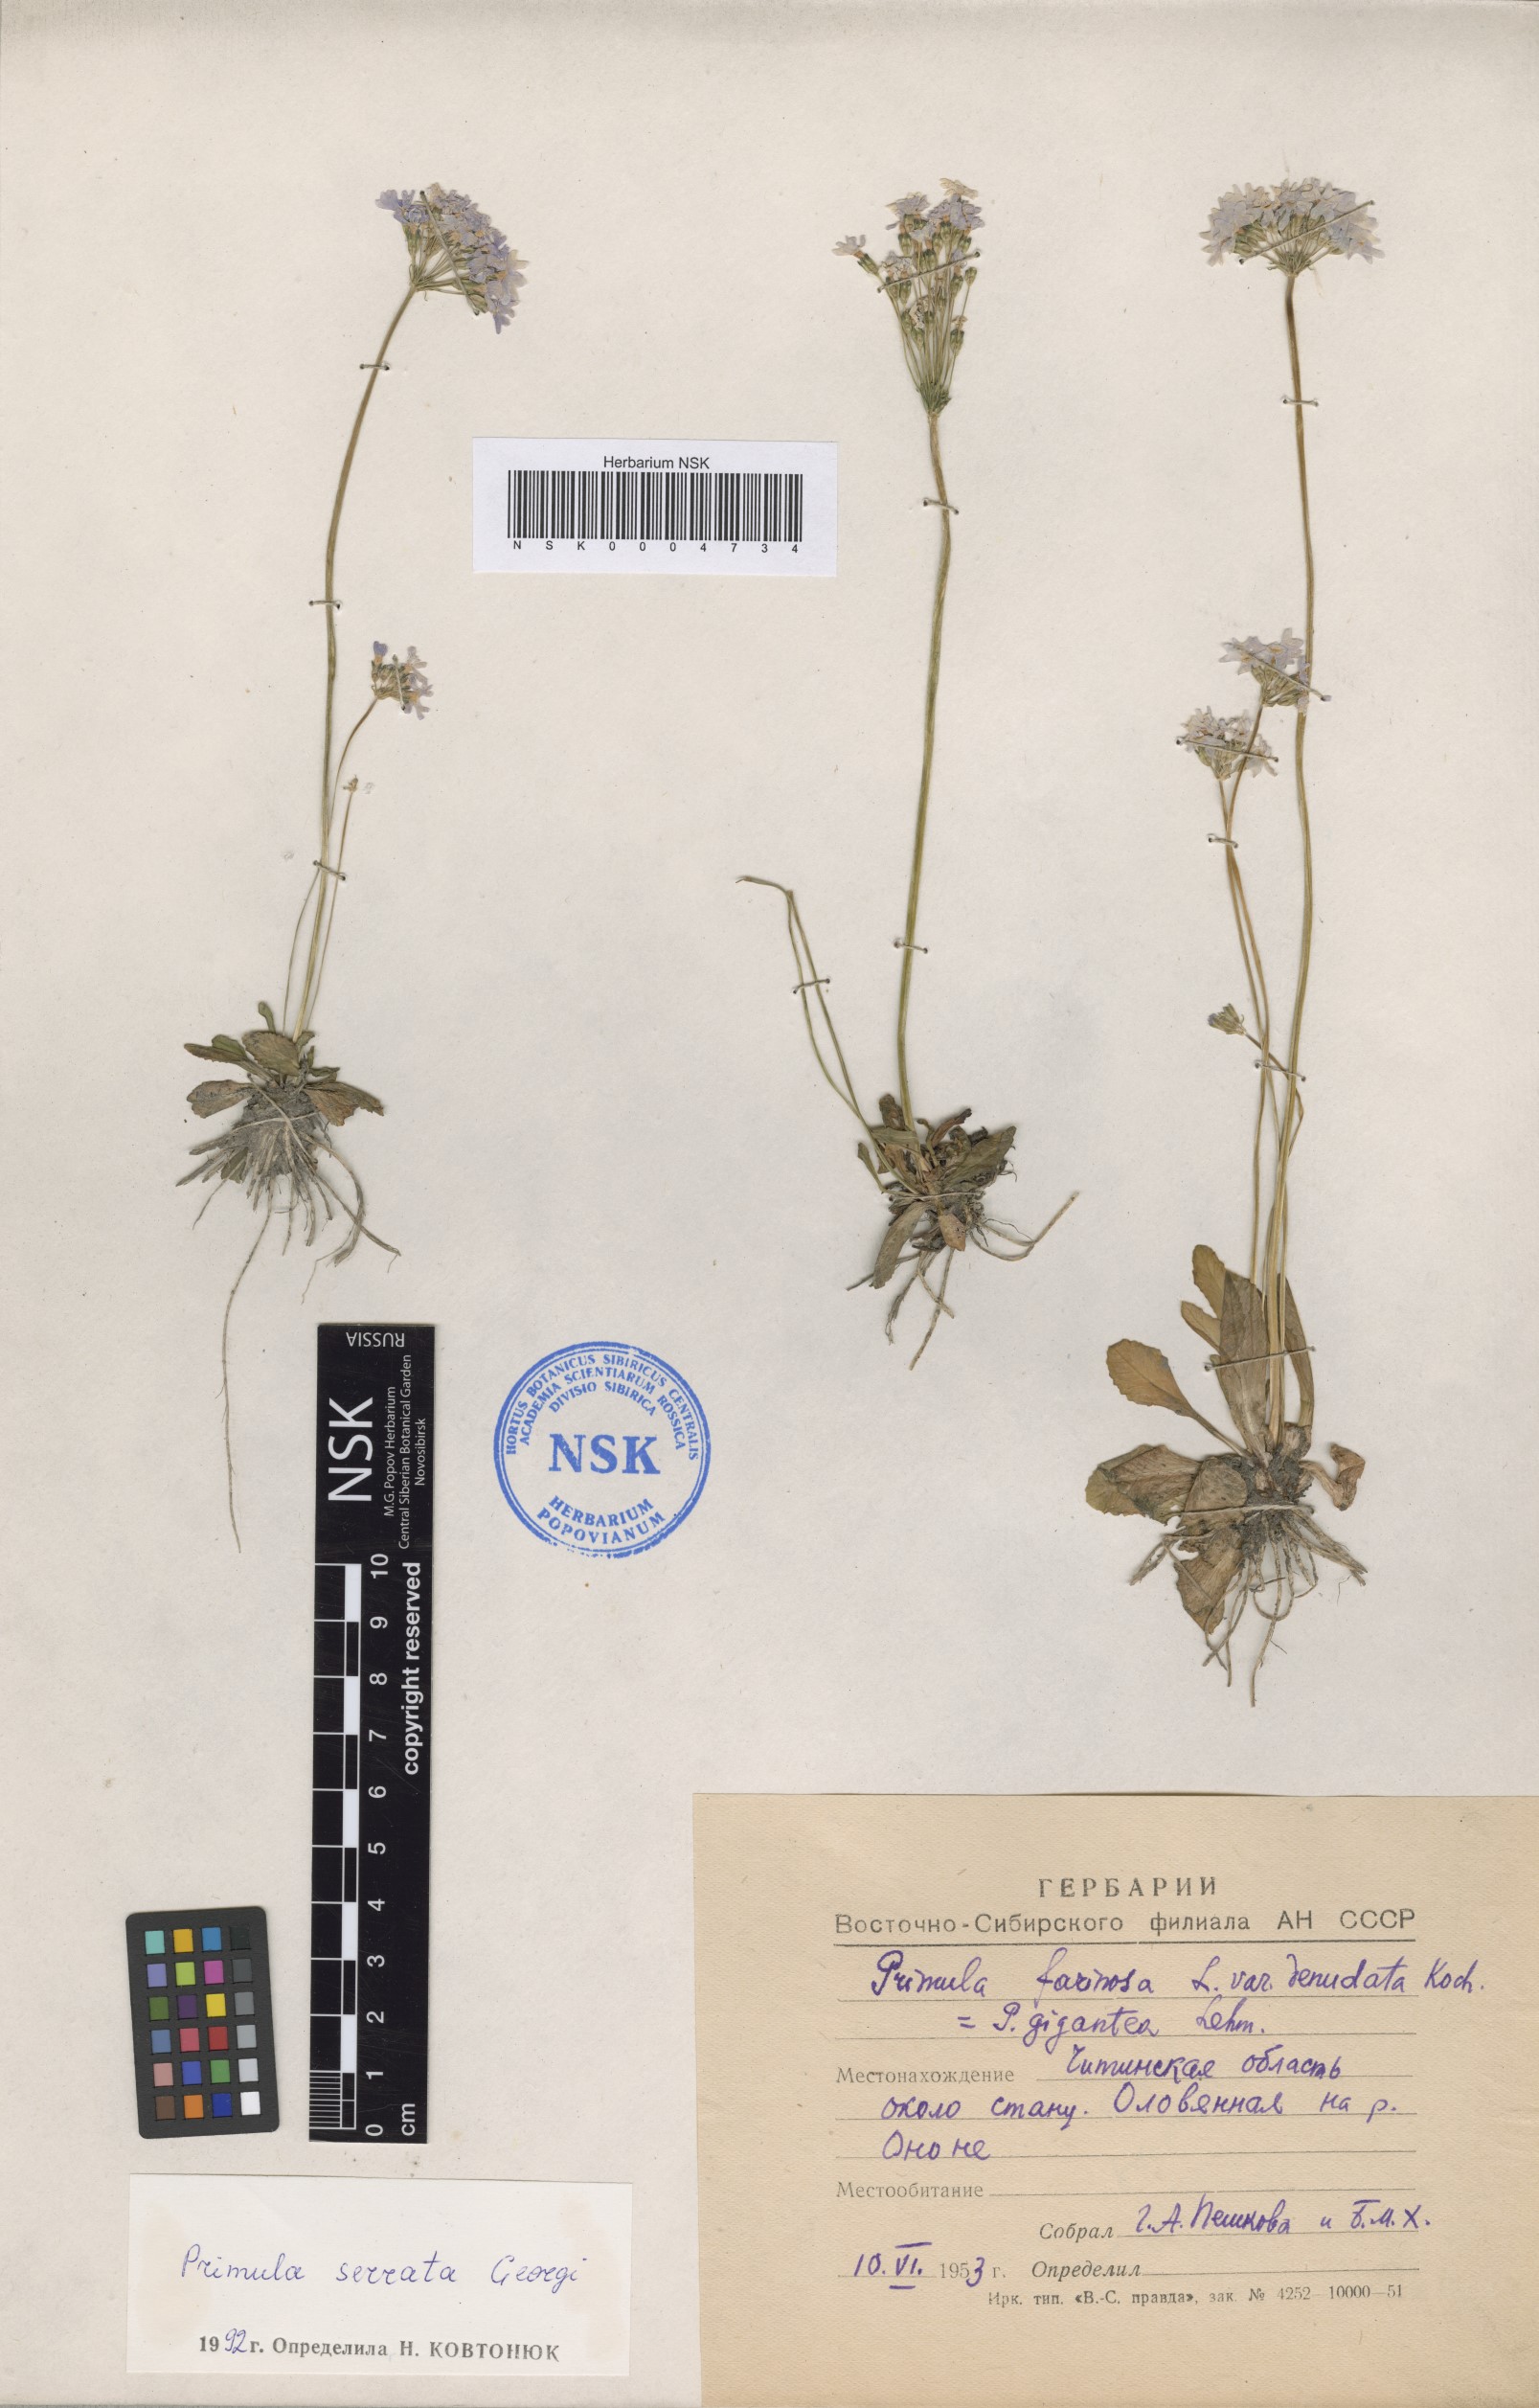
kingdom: Plantae
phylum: Tracheophyta
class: Magnoliopsida
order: Ericales
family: Primulaceae
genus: Primula
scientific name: Primula serrata
